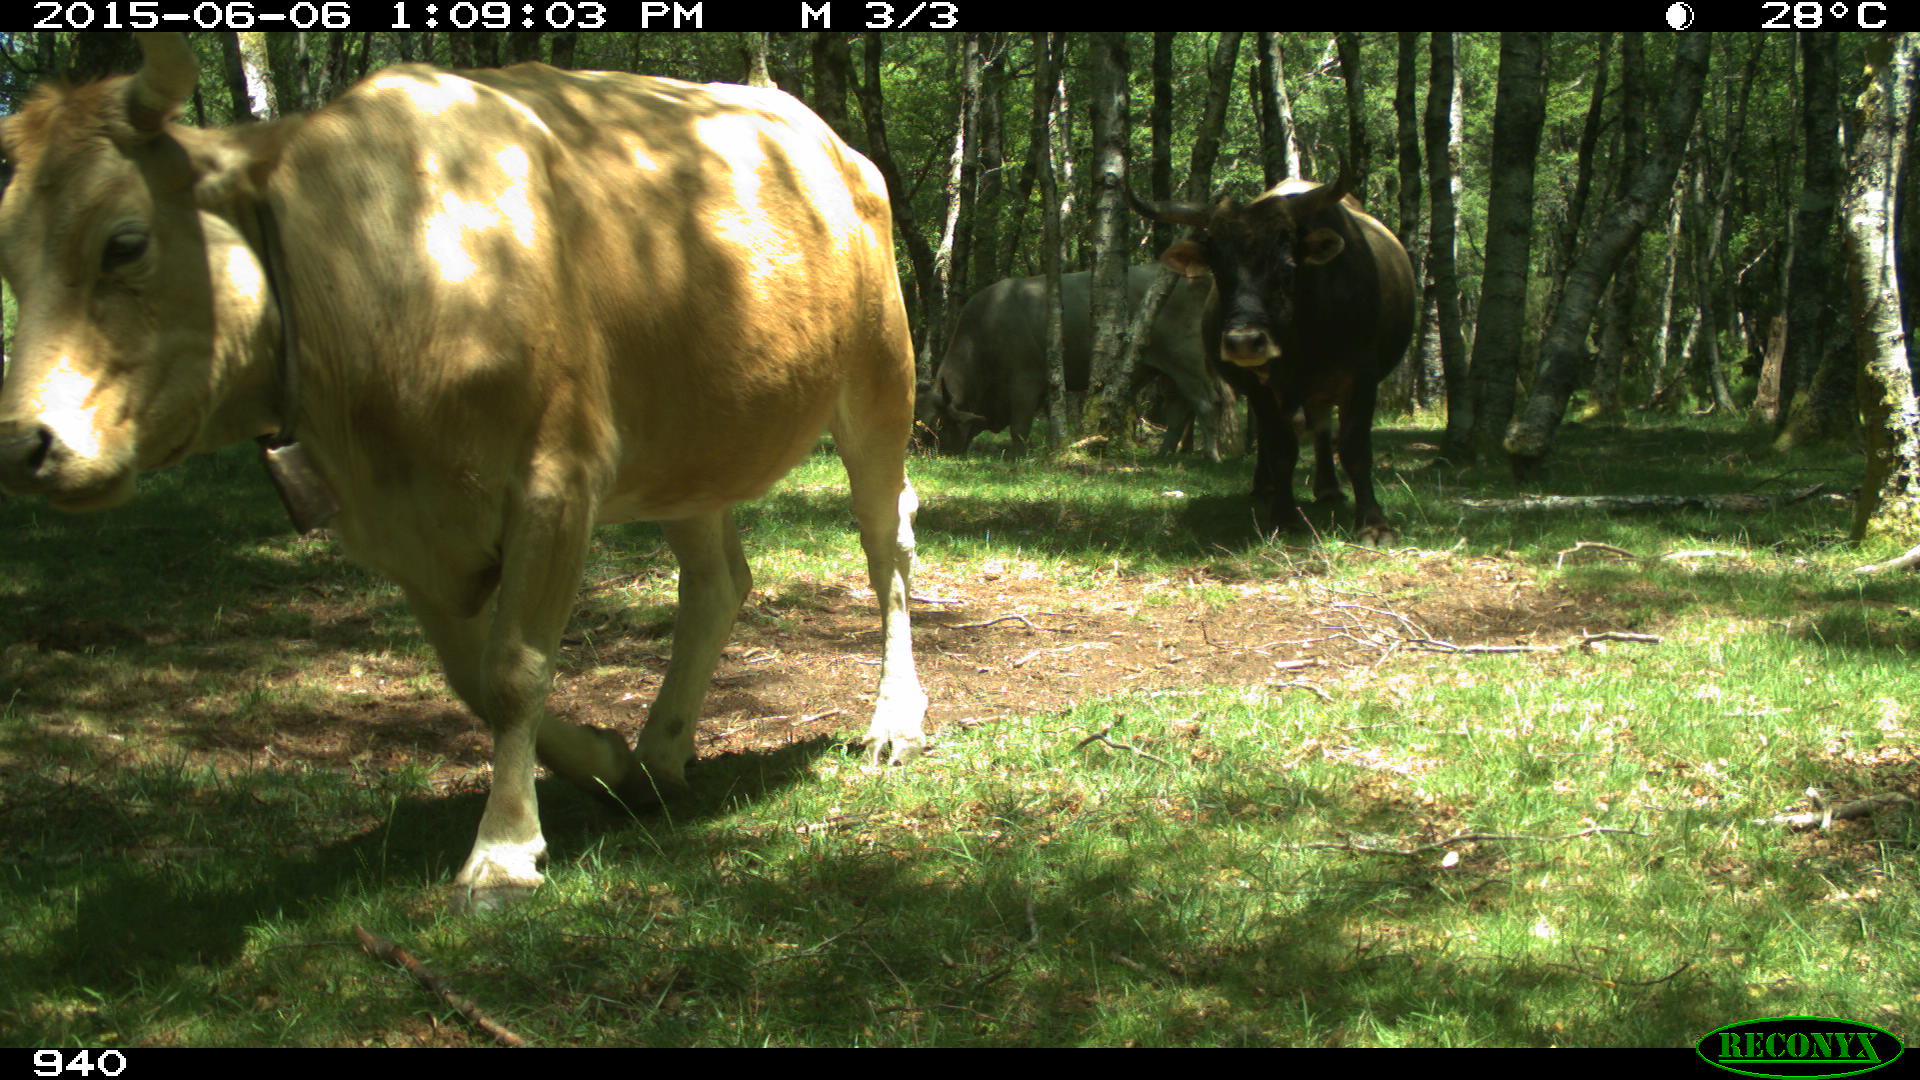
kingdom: Animalia
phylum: Chordata
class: Mammalia
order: Artiodactyla
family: Bovidae
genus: Bos
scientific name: Bos taurus
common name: Domesticated cattle
